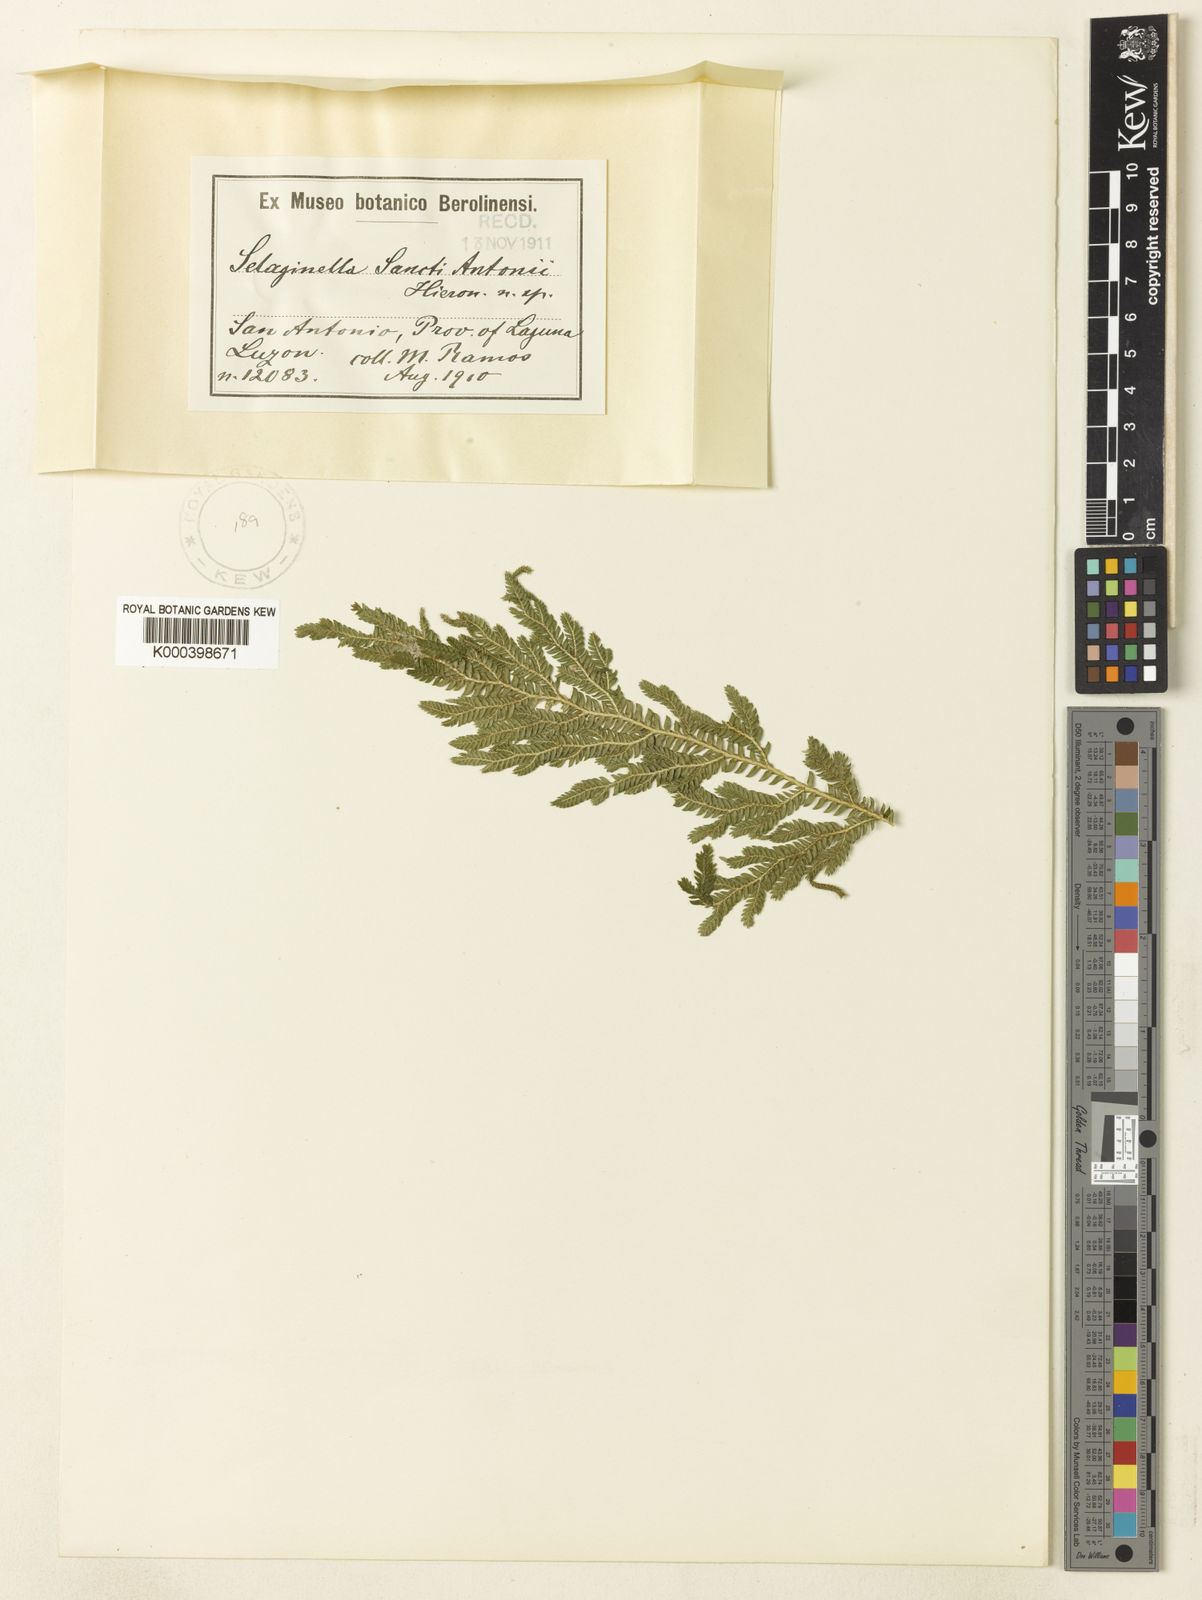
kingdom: Plantae
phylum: Tracheophyta
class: Lycopodiopsida
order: Selaginellales
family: Selaginellaceae
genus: Selaginella
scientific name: Selaginella
